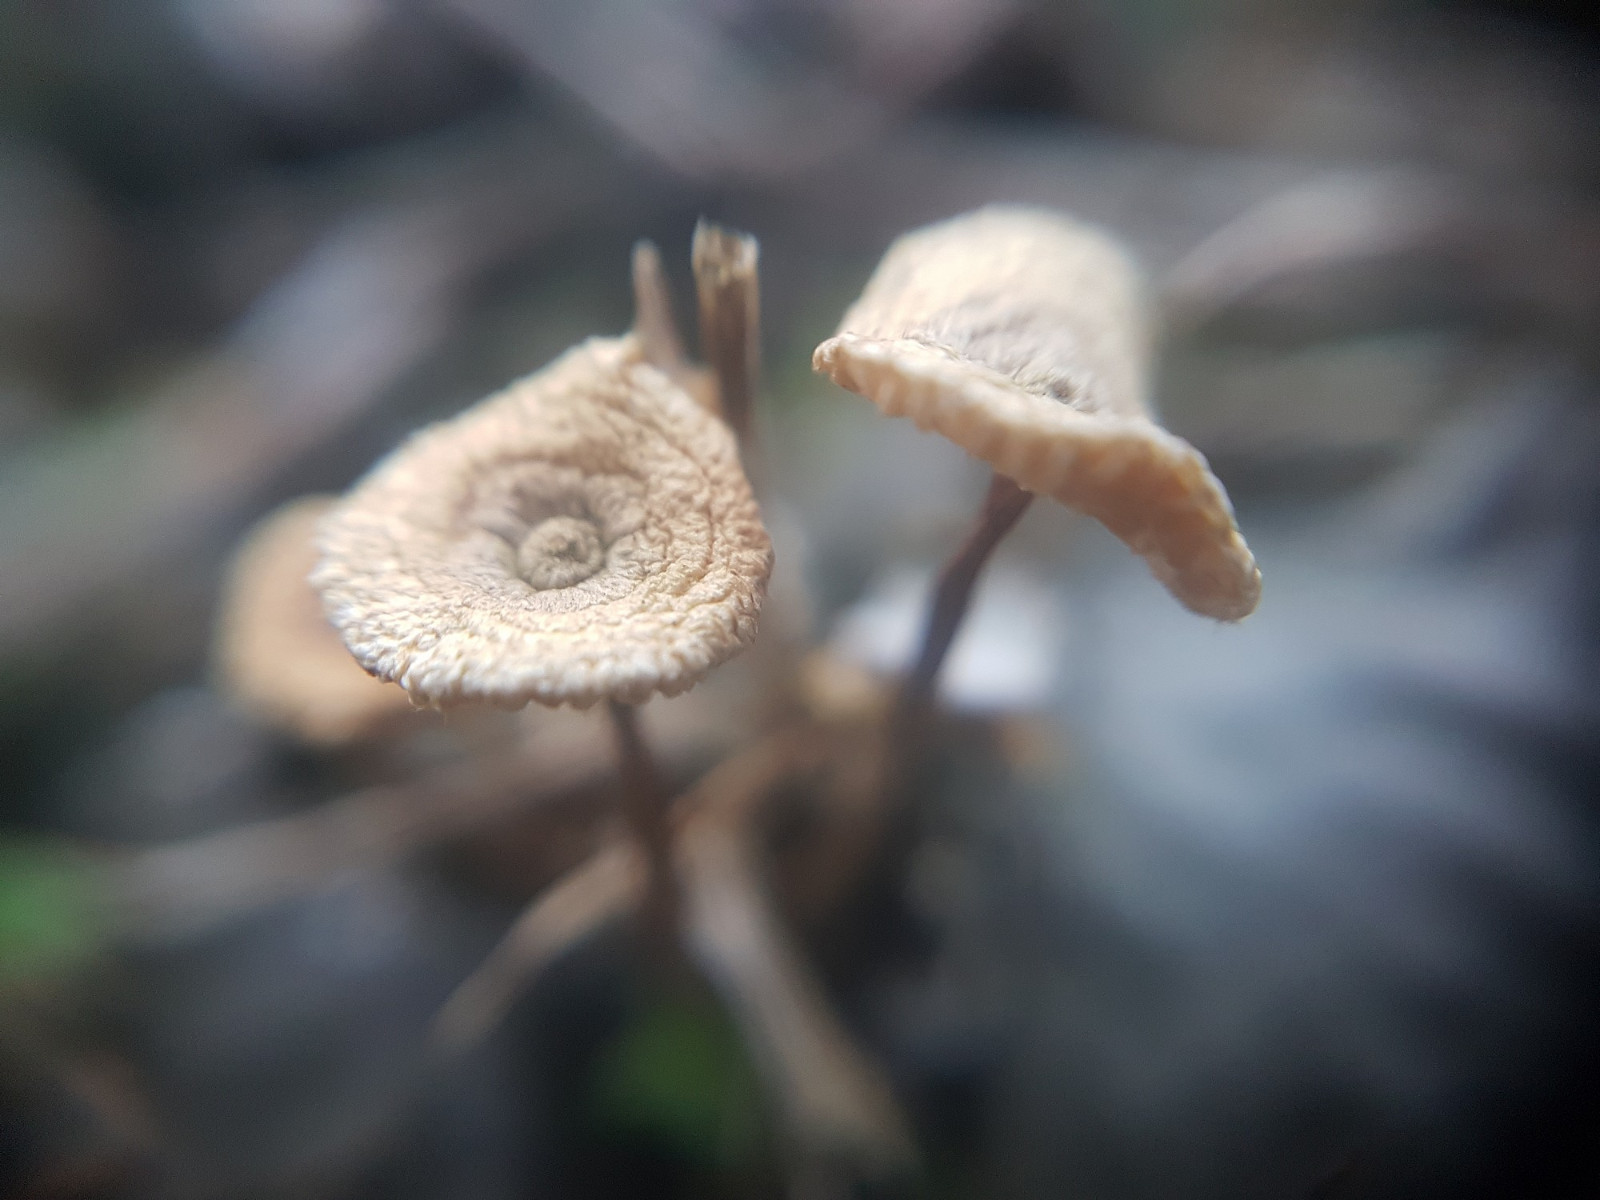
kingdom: Fungi
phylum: Basidiomycota
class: Agaricomycetes
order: Agaricales
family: Marasmiaceae
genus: Crinipellis
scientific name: Crinipellis scabella
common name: børstefod
